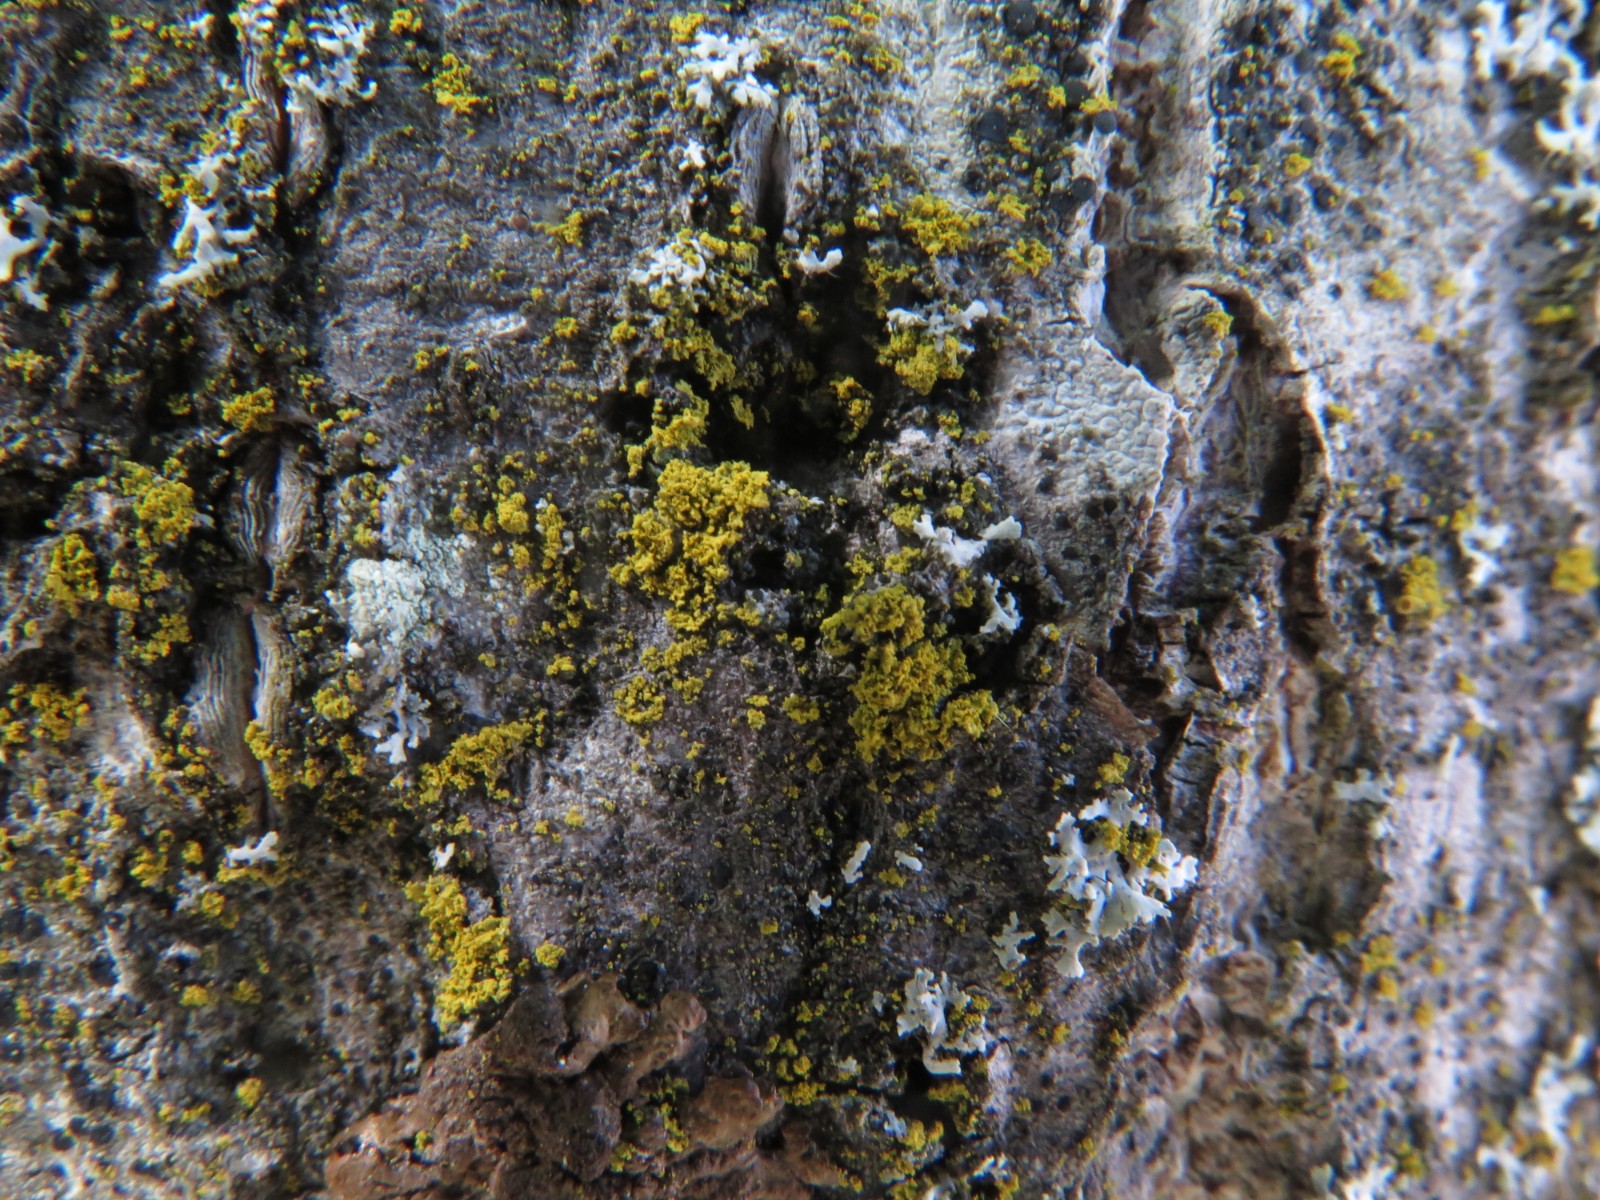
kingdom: Fungi
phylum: Ascomycota
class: Candelariomycetes
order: Candelariales
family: Candelariaceae
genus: Candelaria
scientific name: Candelaria pacifica
